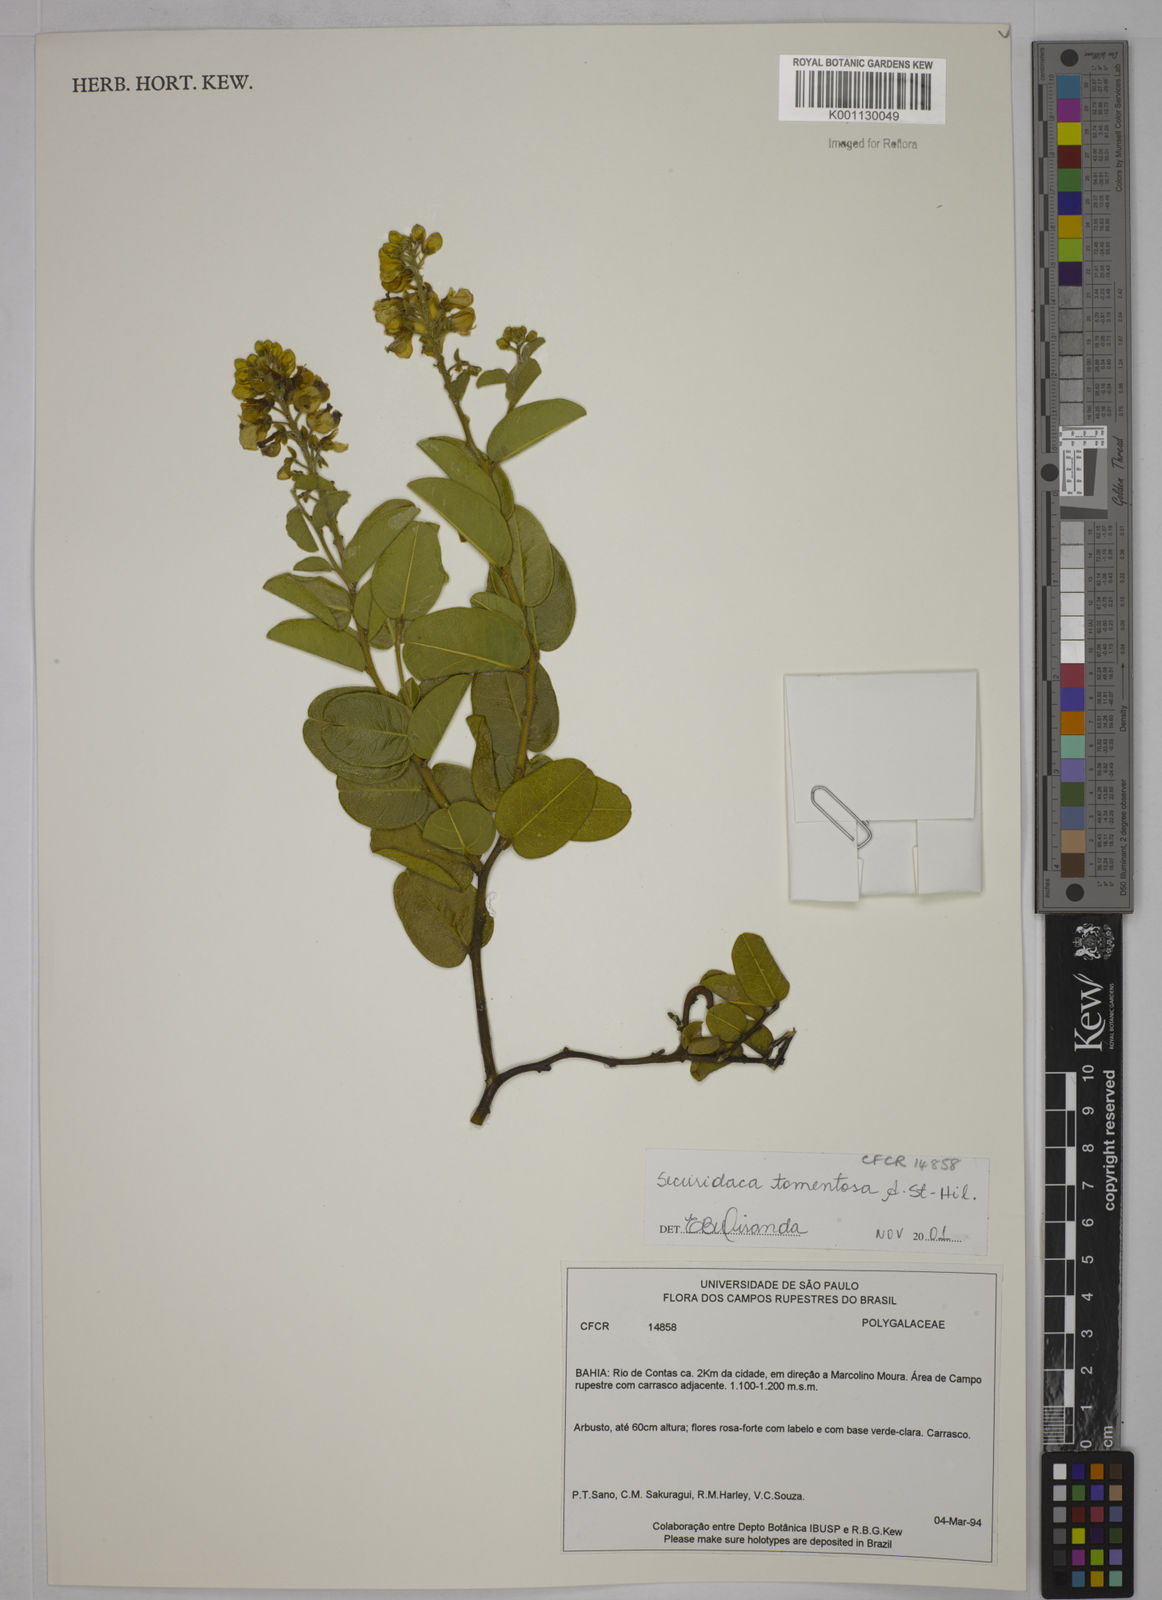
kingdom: Plantae
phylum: Tracheophyta
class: Magnoliopsida
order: Fabales
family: Polygalaceae
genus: Securidaca
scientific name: Securidaca tomentosa
